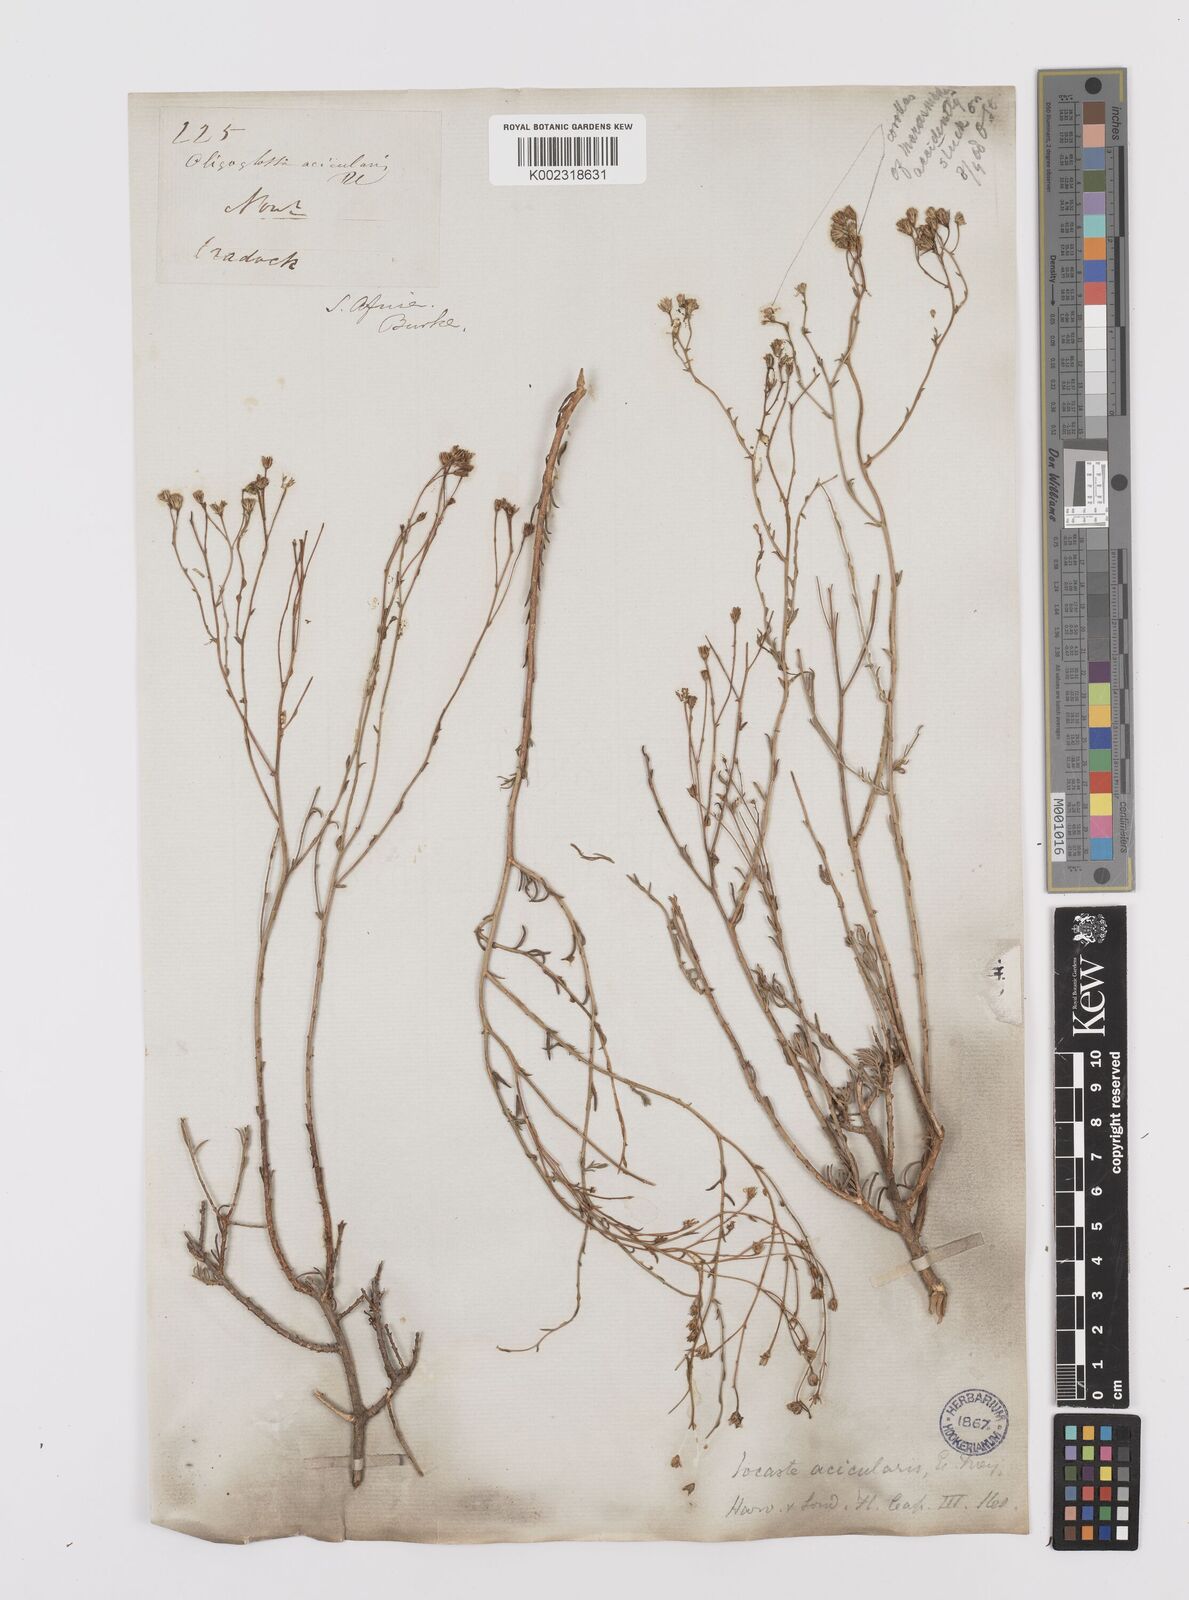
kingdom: Plantae
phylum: Tracheophyta
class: Magnoliopsida
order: Asterales
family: Asteraceae
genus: Phymaspermum
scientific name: Phymaspermum aciculare
